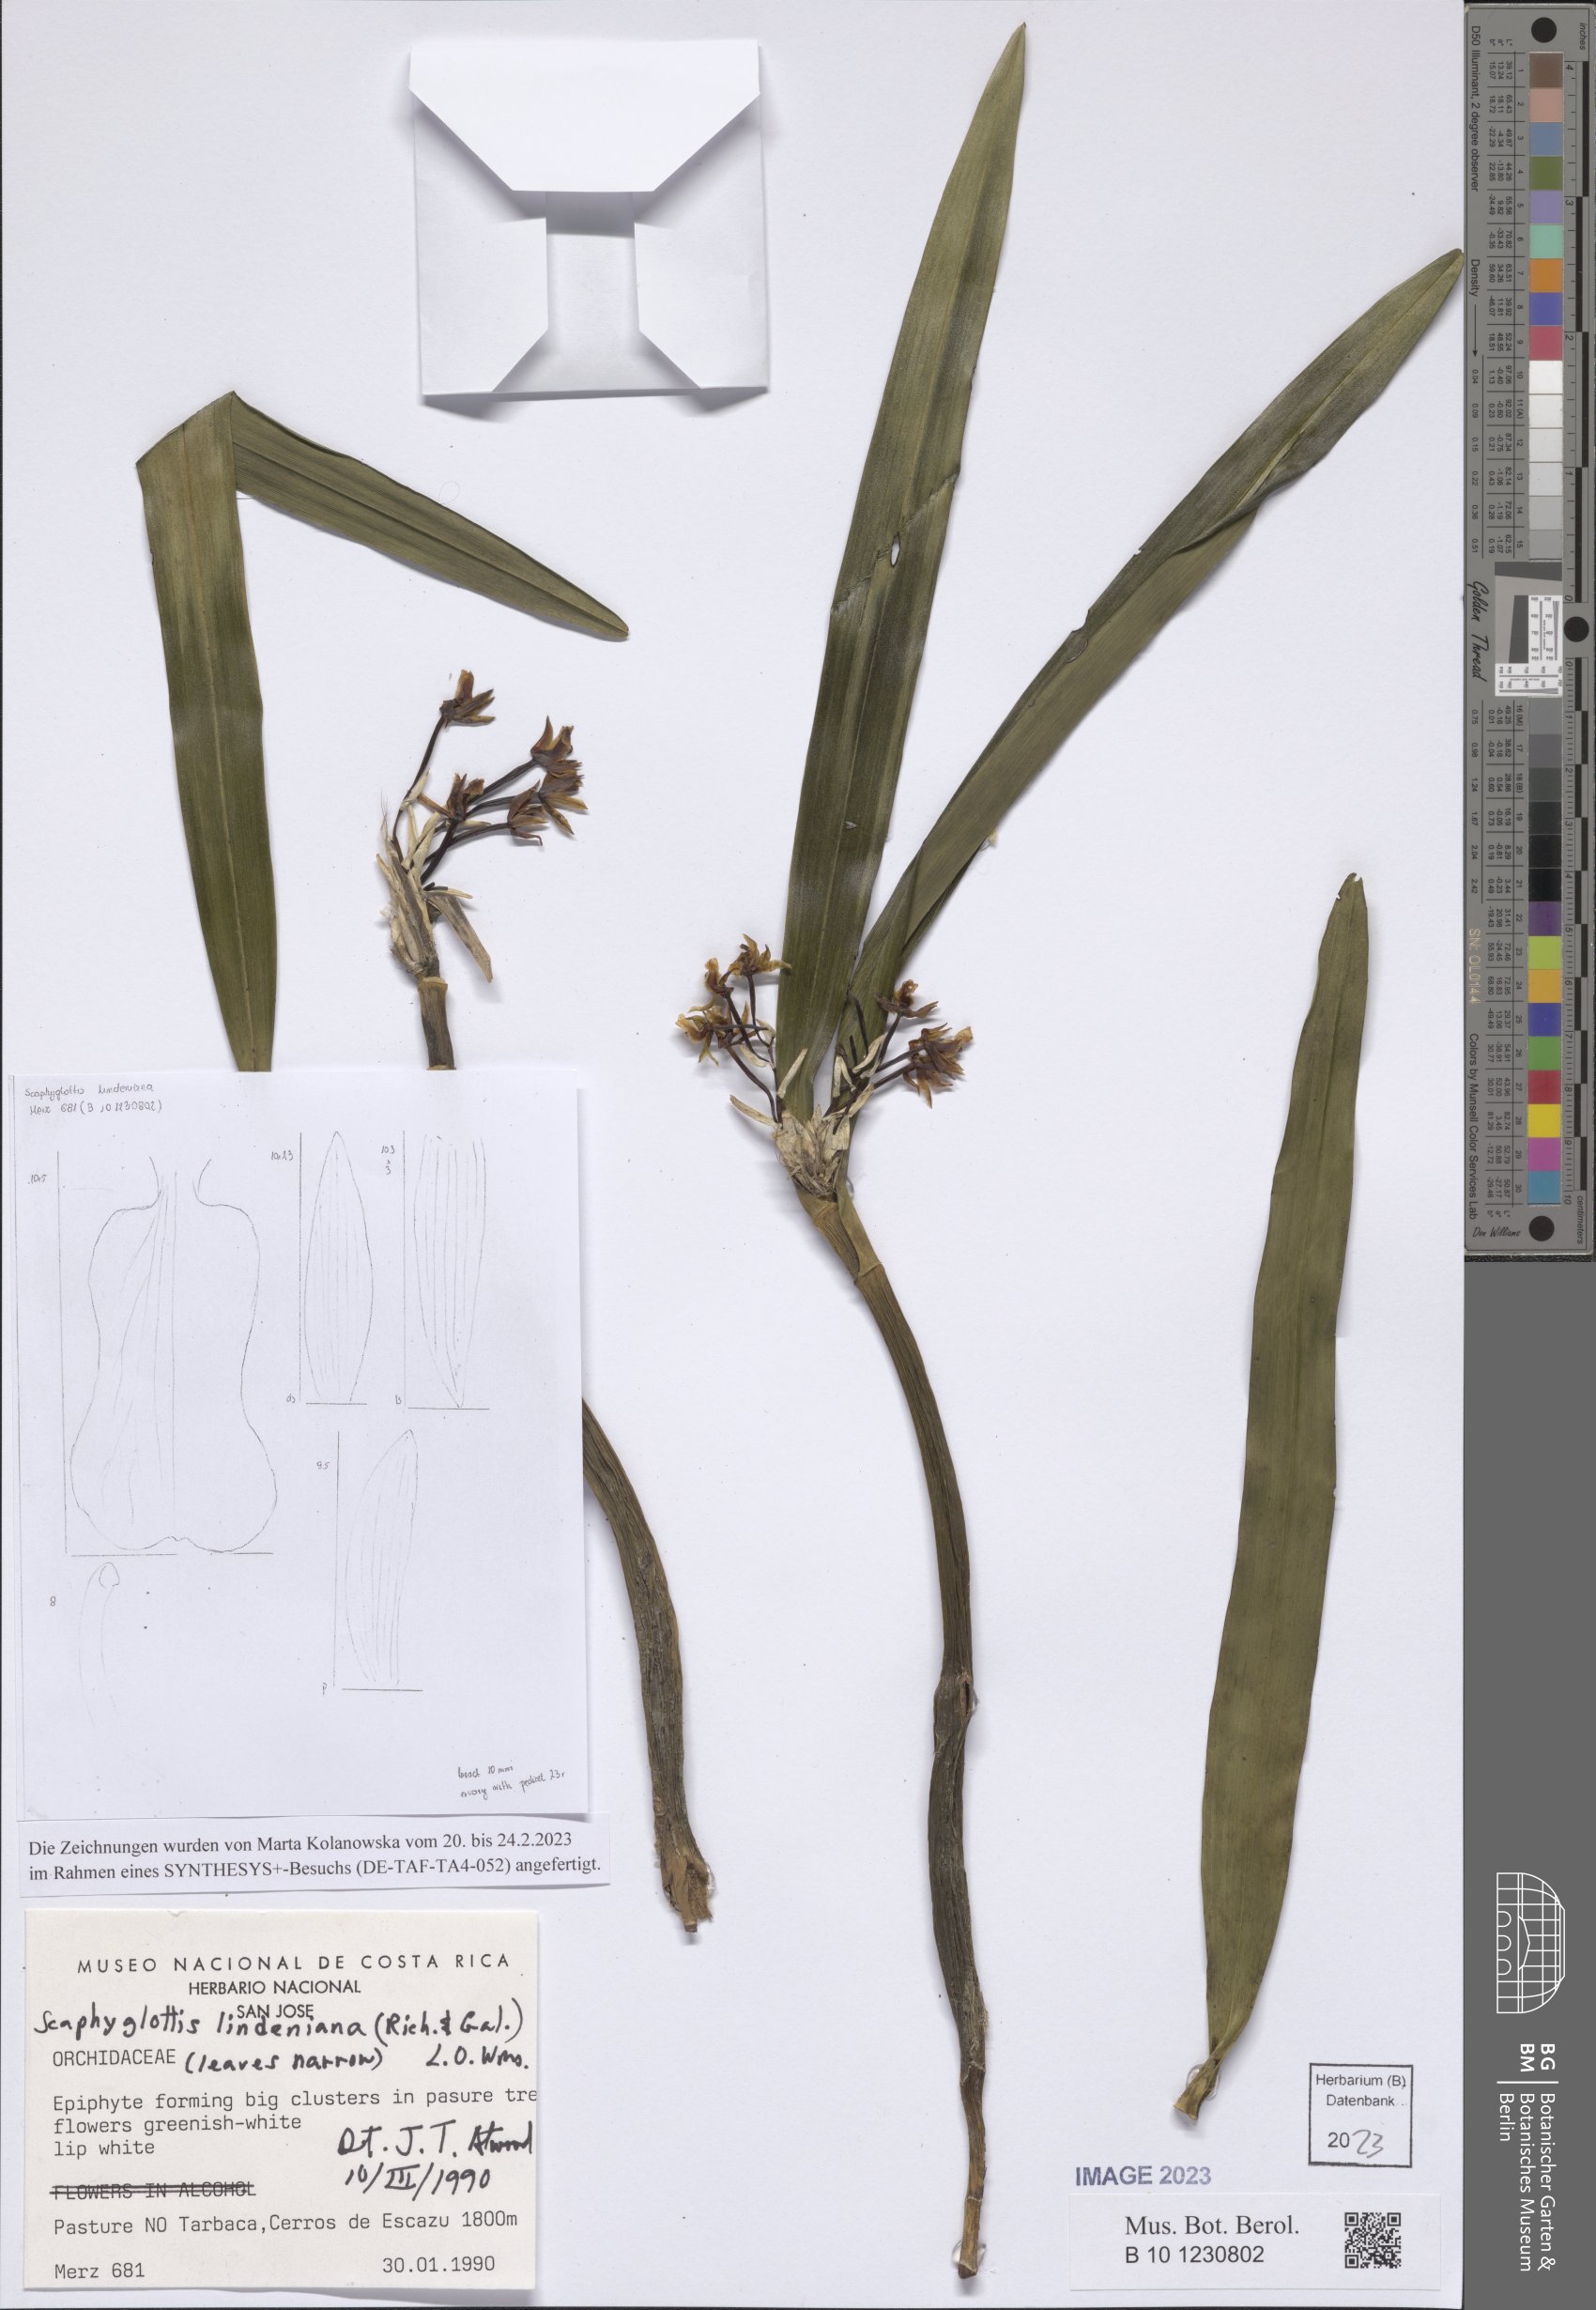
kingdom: Plantae
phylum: Tracheophyta
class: Liliopsida
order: Asparagales
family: Orchidaceae
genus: Scaphyglottis
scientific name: Scaphyglottis lindeniana
